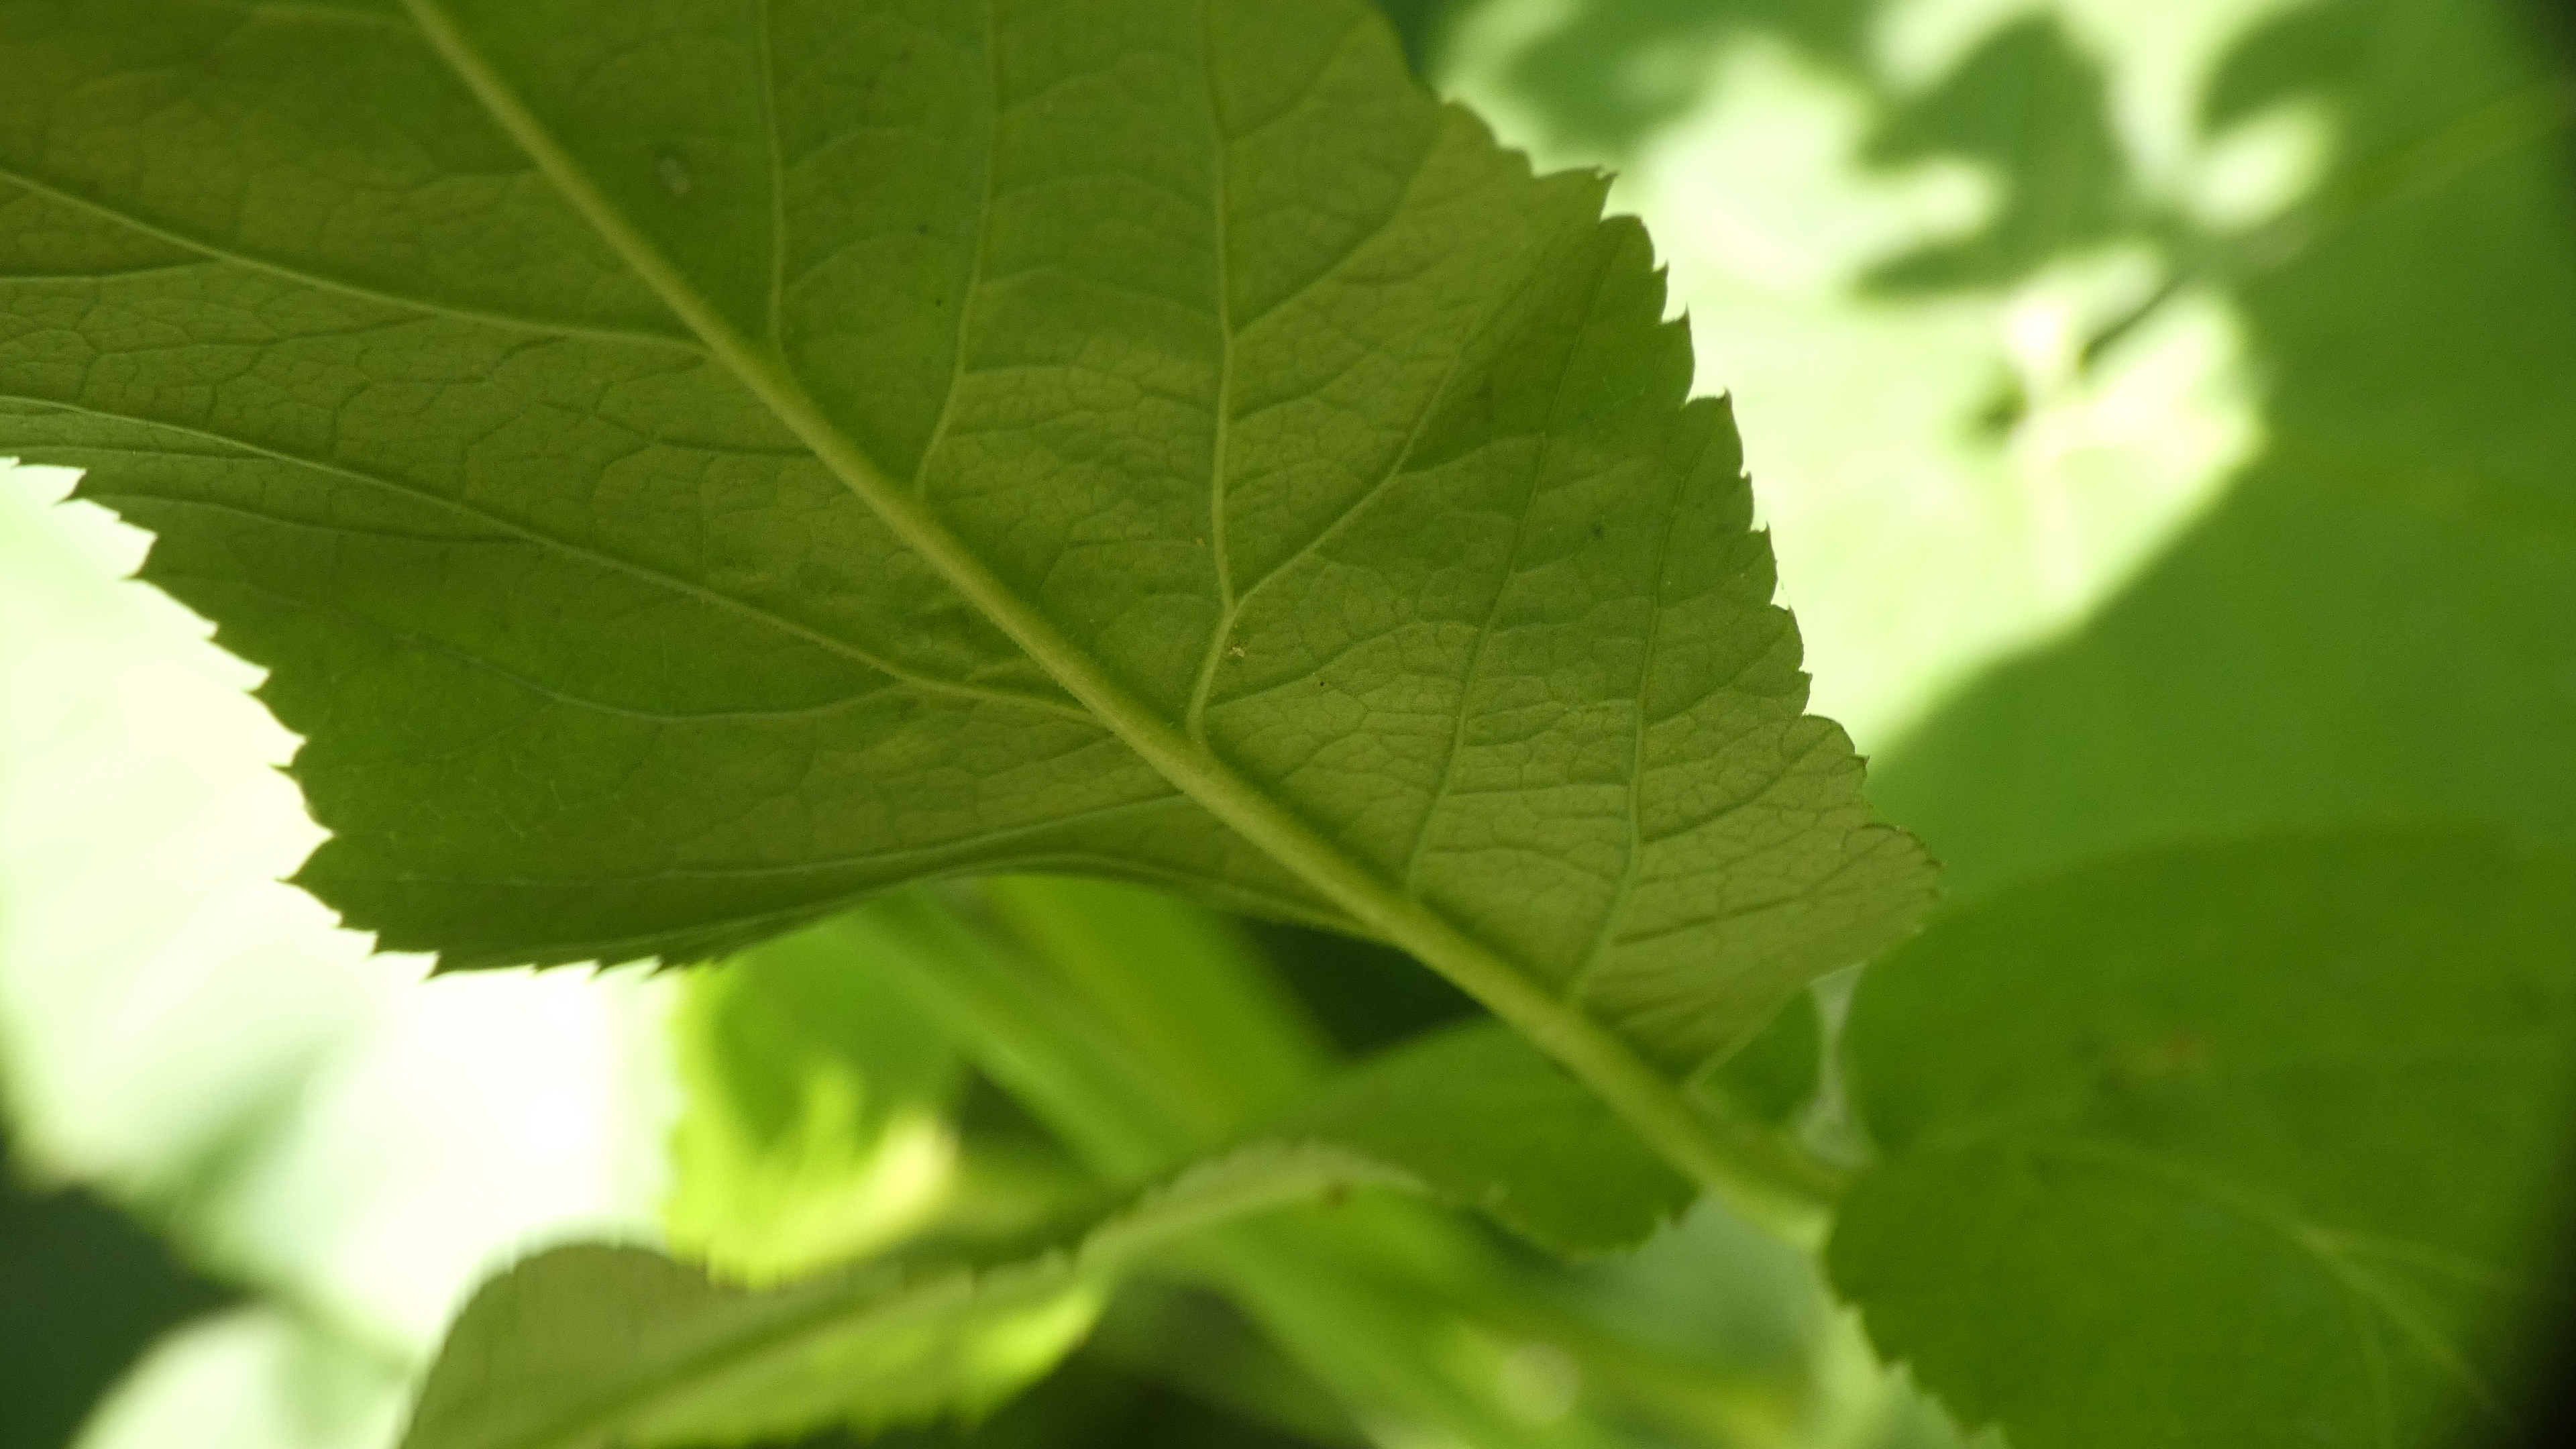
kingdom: Plantae
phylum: Tracheophyta
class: Magnoliopsida
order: Apiales
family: Apiaceae
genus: Aegopodium
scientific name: Aegopodium podagraria
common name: Skvalderkål
